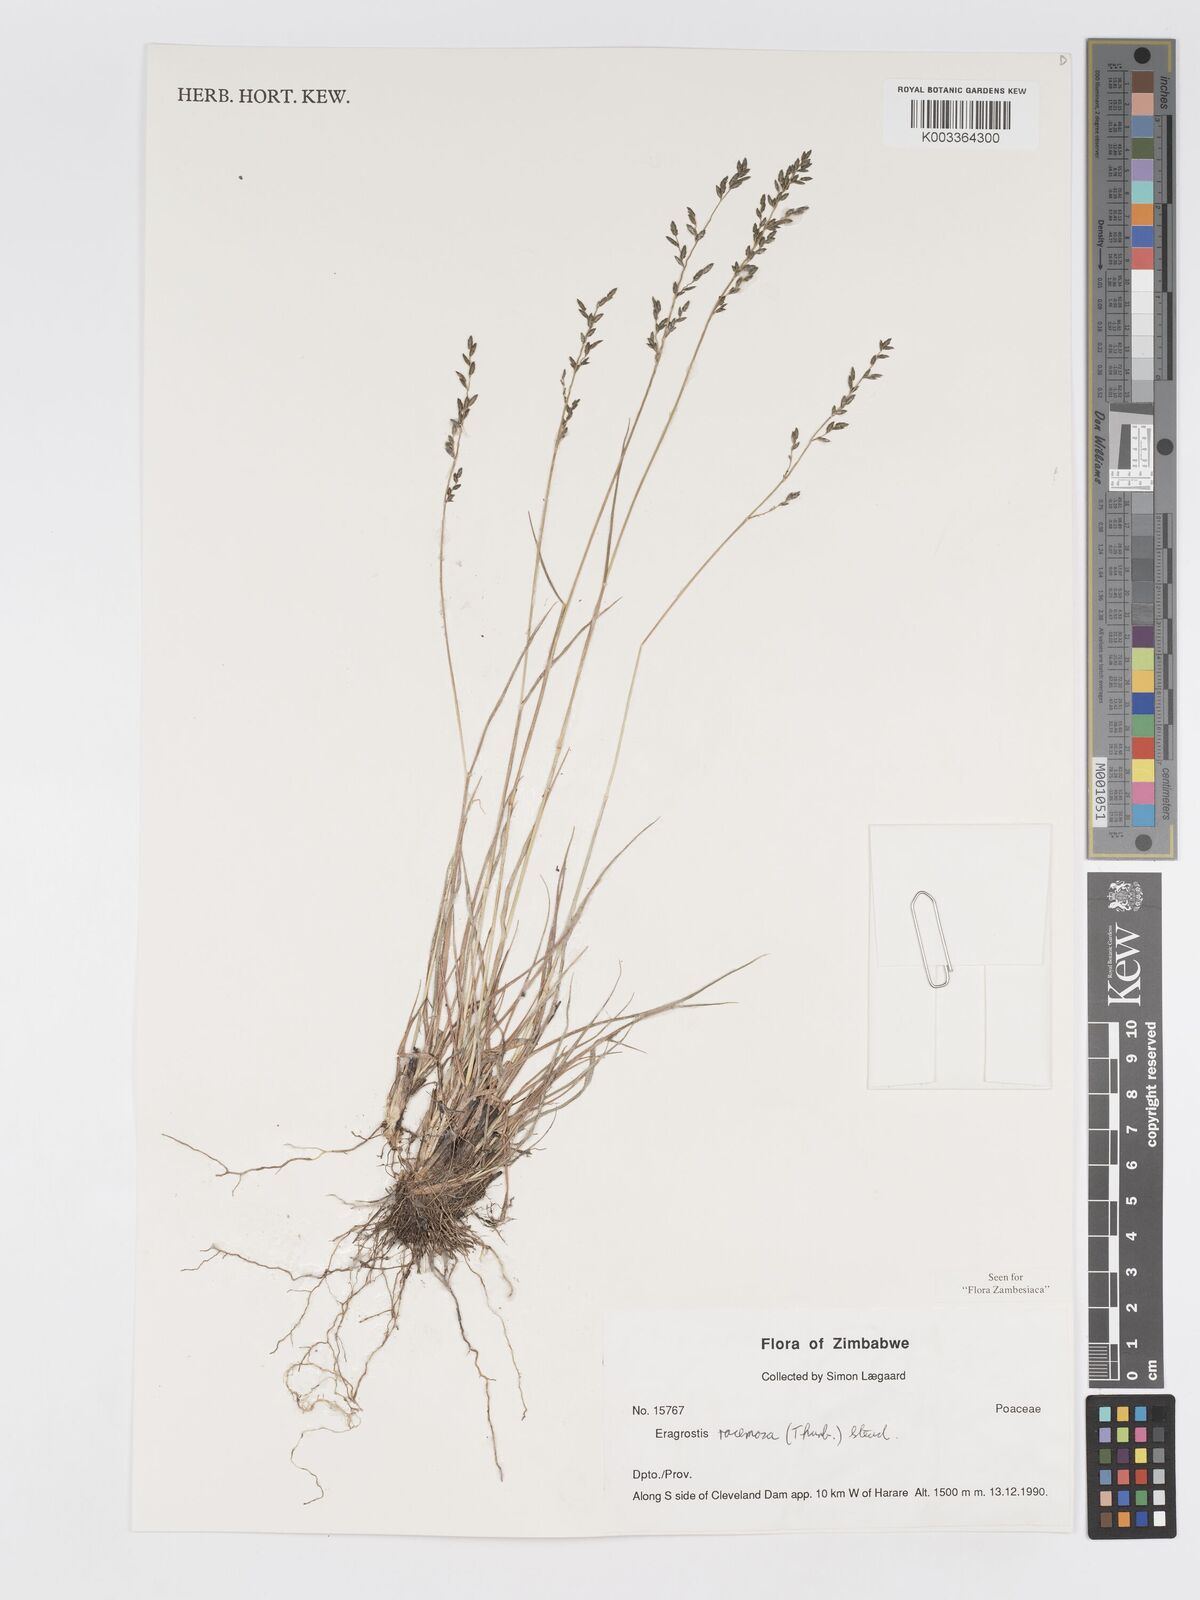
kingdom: Plantae
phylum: Tracheophyta
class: Liliopsida
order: Poales
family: Poaceae
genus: Eragrostis
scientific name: Eragrostis racemosa
